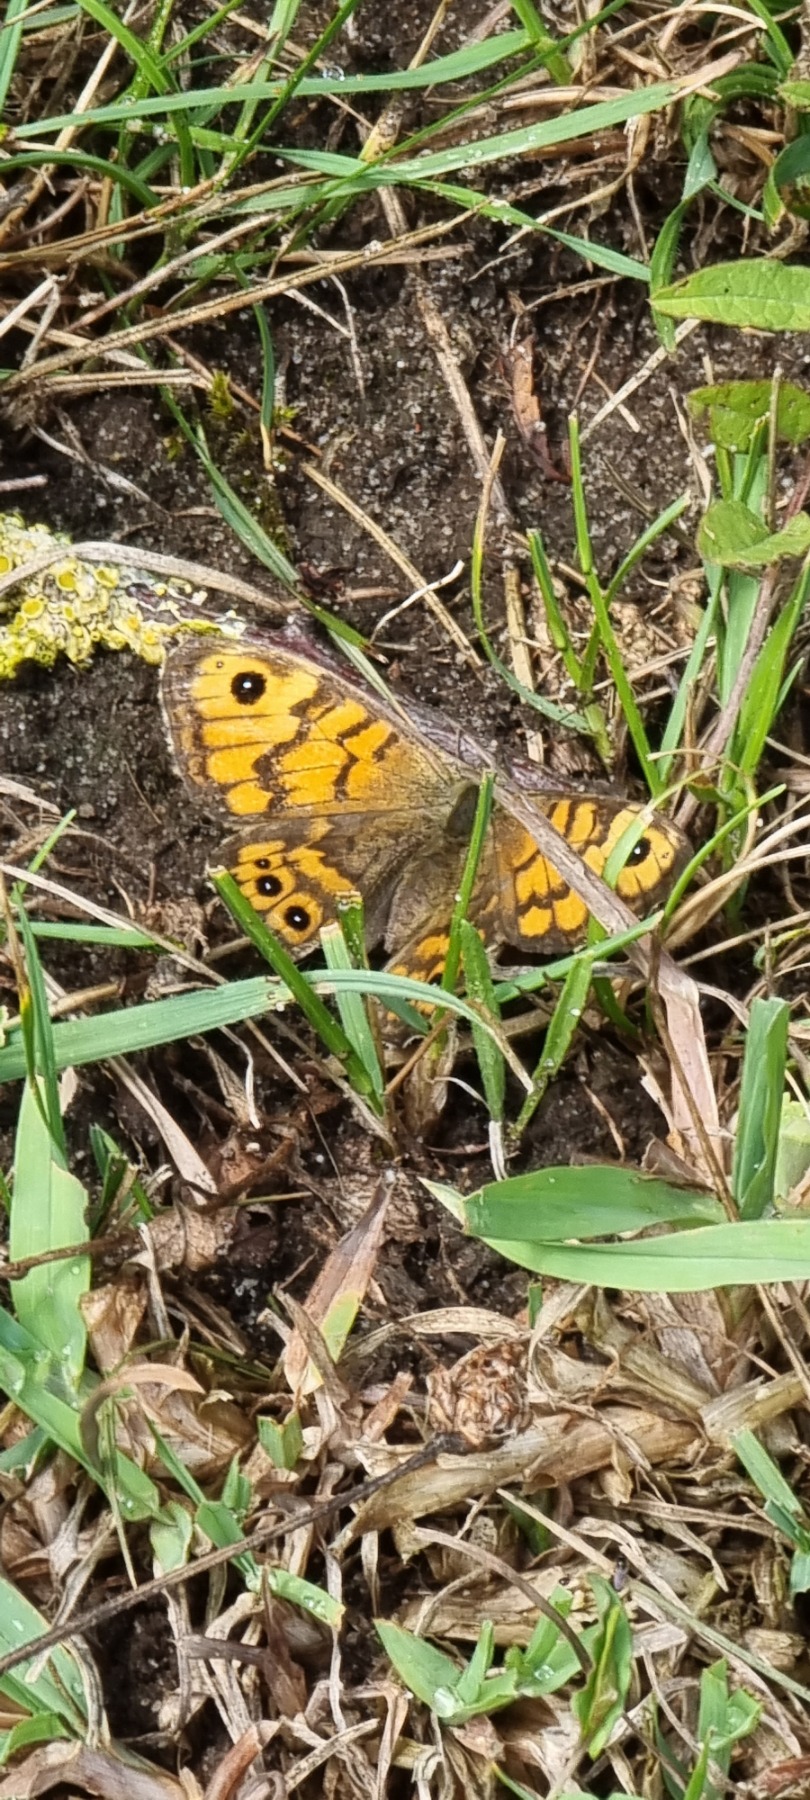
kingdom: Animalia
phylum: Arthropoda
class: Insecta
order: Lepidoptera
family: Nymphalidae
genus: Pararge
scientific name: Pararge Lasiommata megera
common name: Vejrandøje
